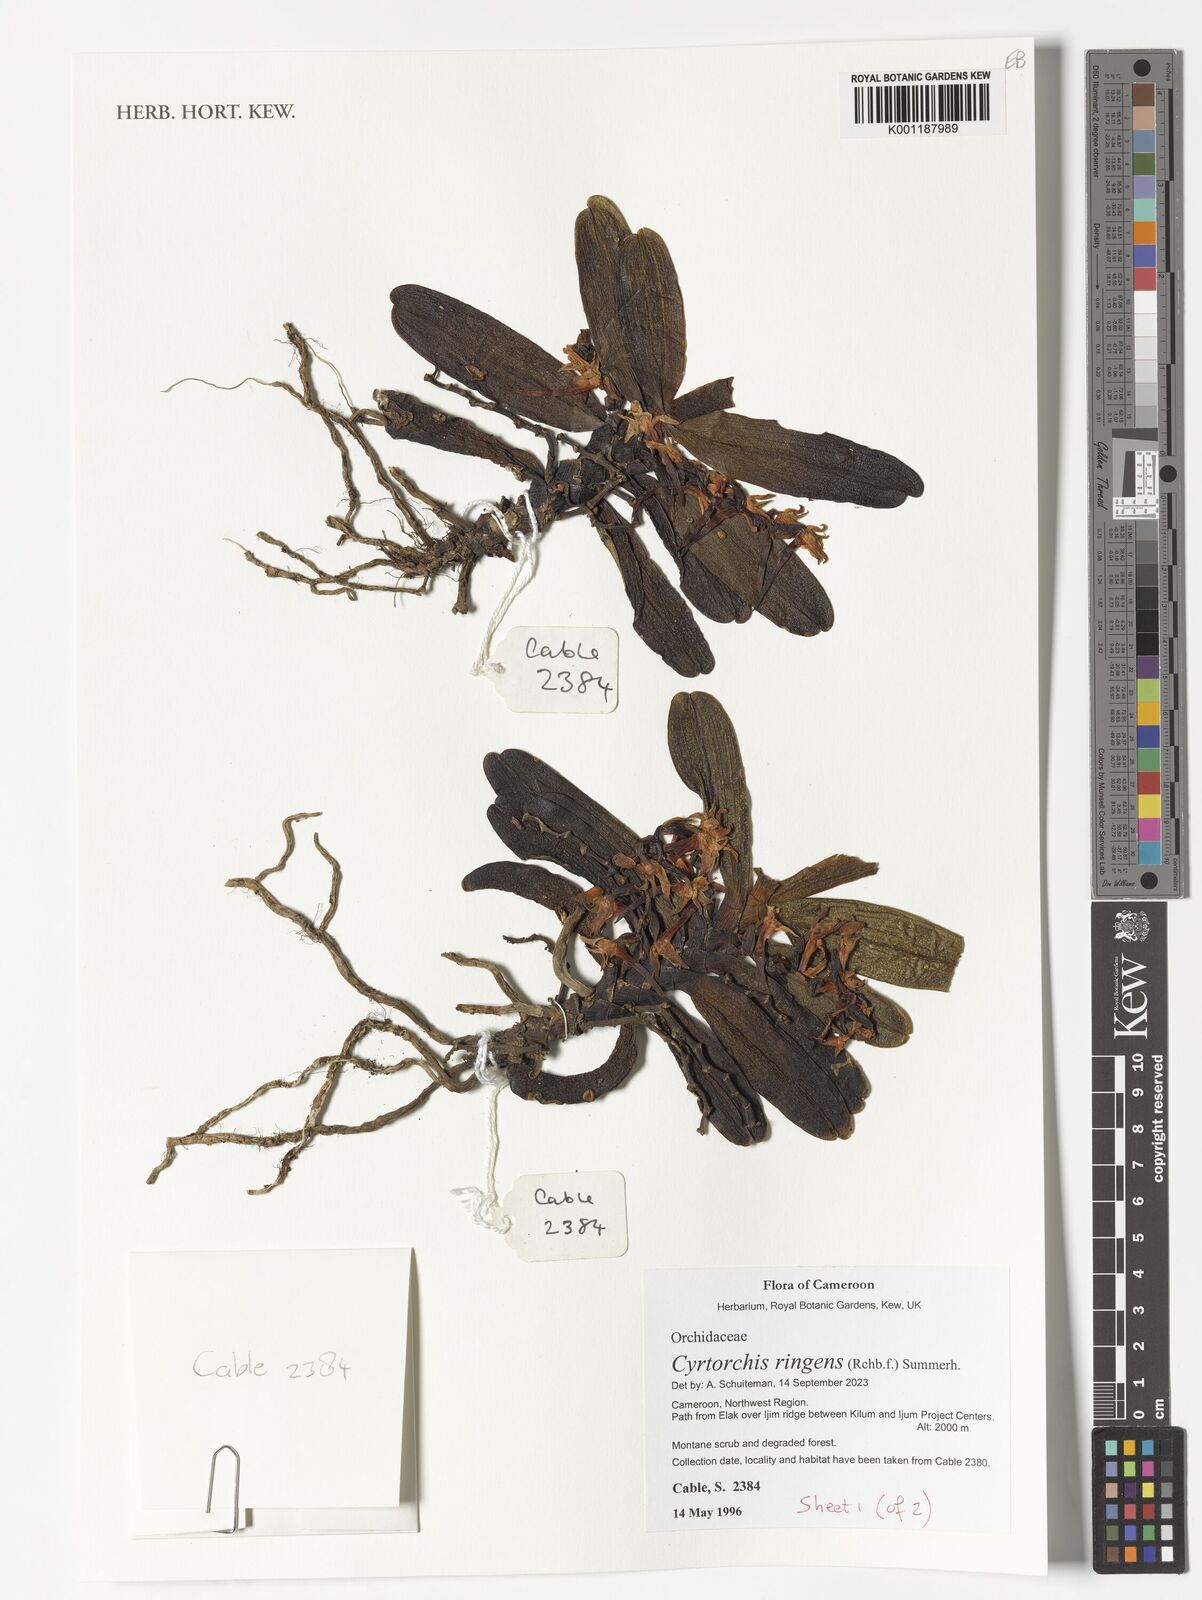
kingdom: Plantae
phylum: Tracheophyta
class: Liliopsida
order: Asparagales
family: Orchidaceae
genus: Cyrtorchis
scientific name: Cyrtorchis ringens
